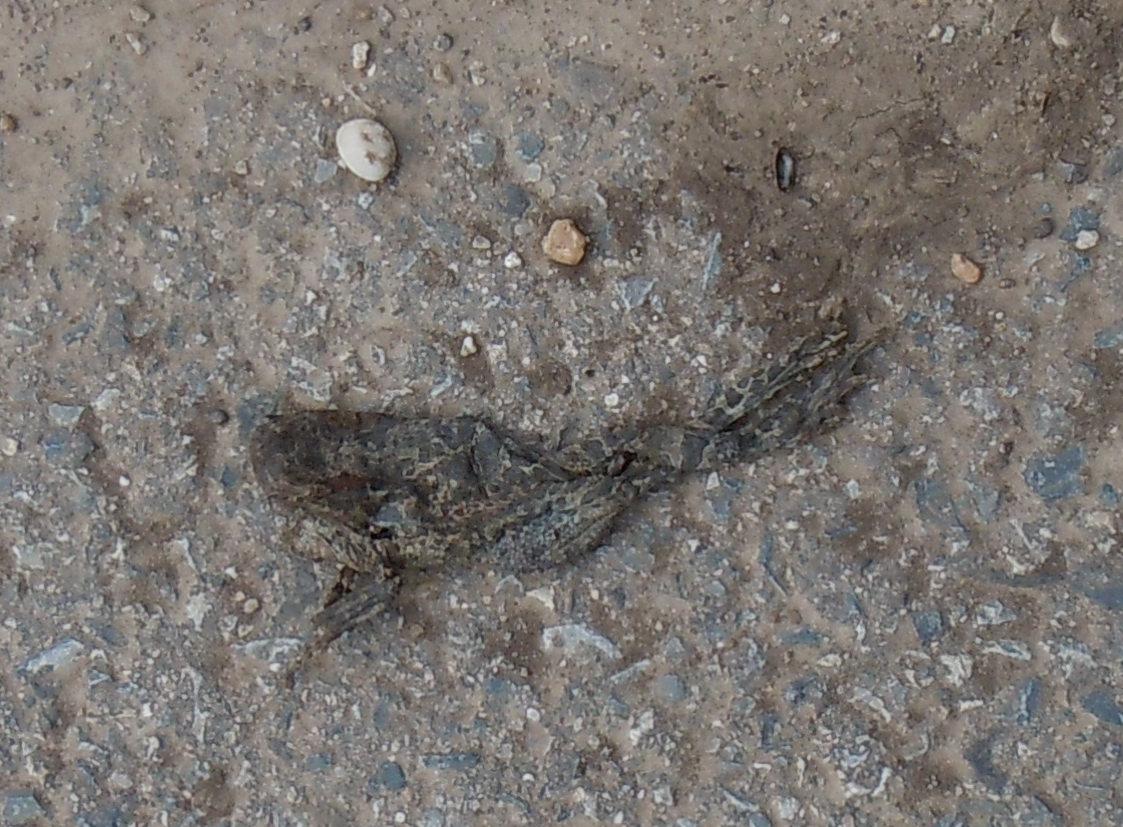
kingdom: Animalia
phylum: Chordata
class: Amphibia
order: Anura
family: Bufonidae
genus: Bufotes
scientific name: Bufotes viridis
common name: European green toad
